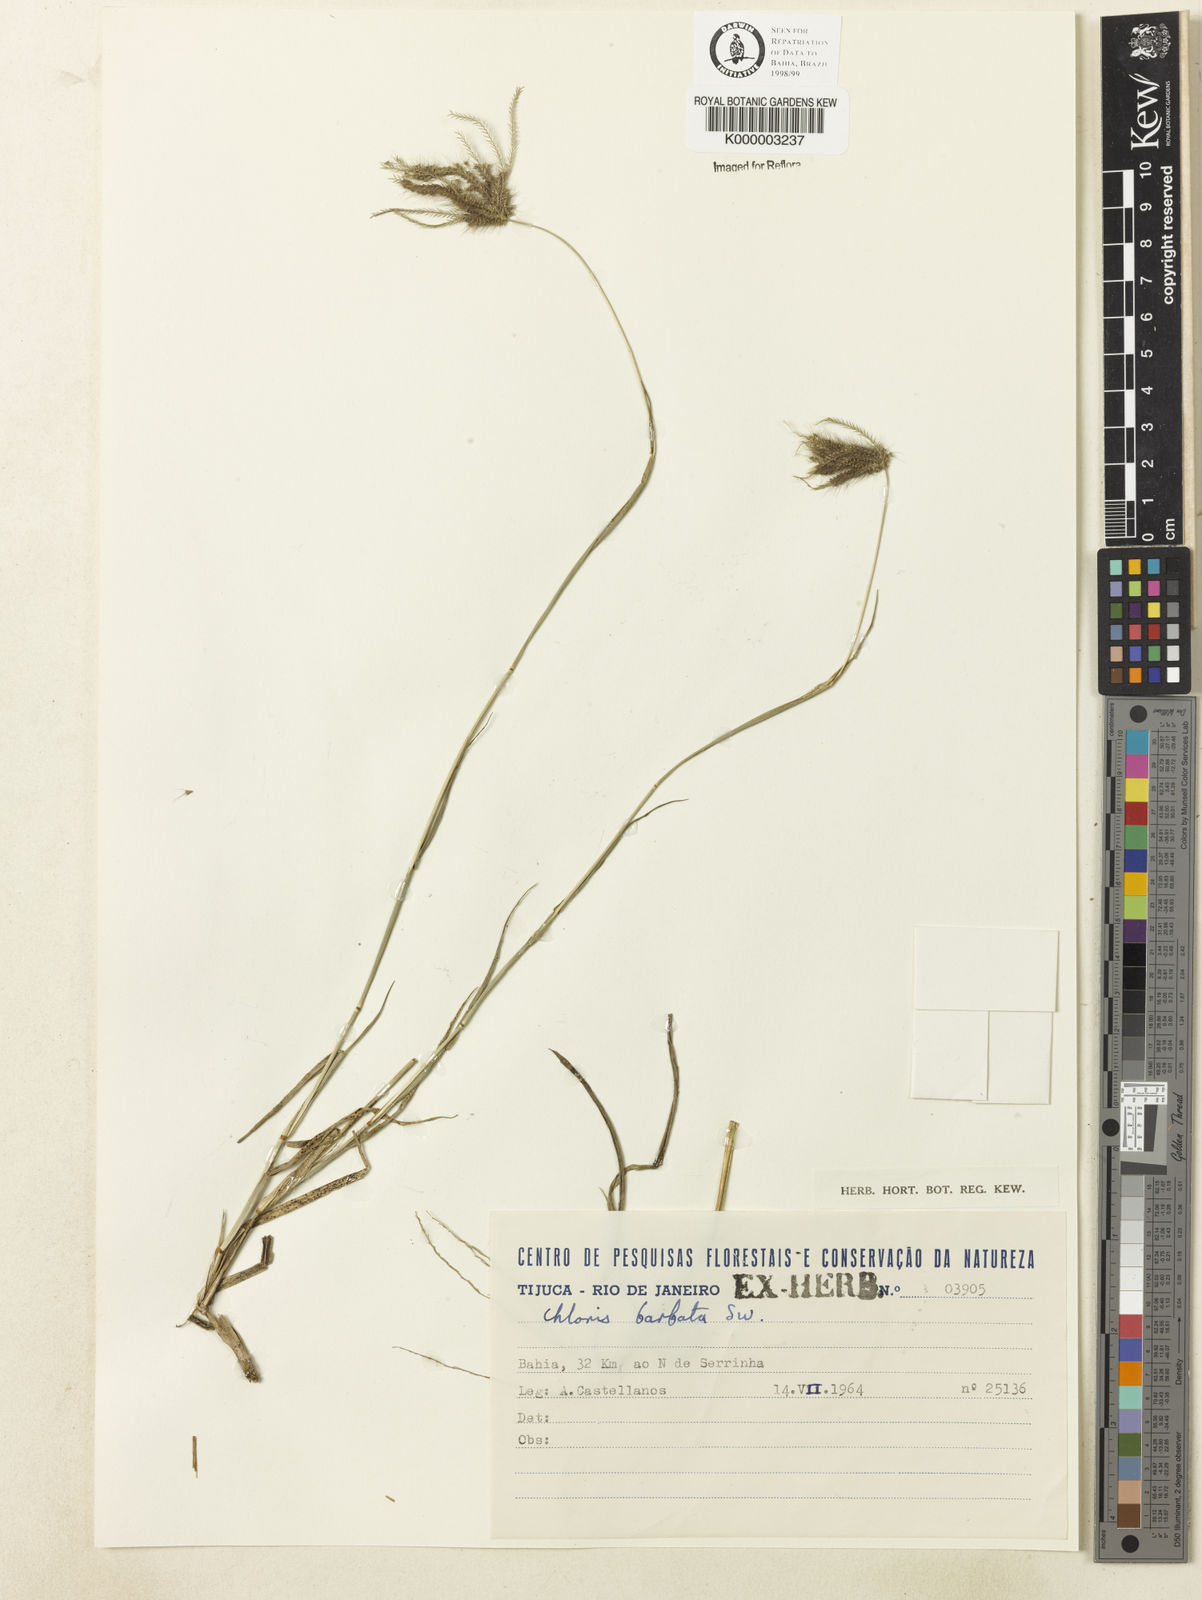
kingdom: Plantae
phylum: Tracheophyta
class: Liliopsida
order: Poales
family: Poaceae
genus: Chloris
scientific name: Chloris
